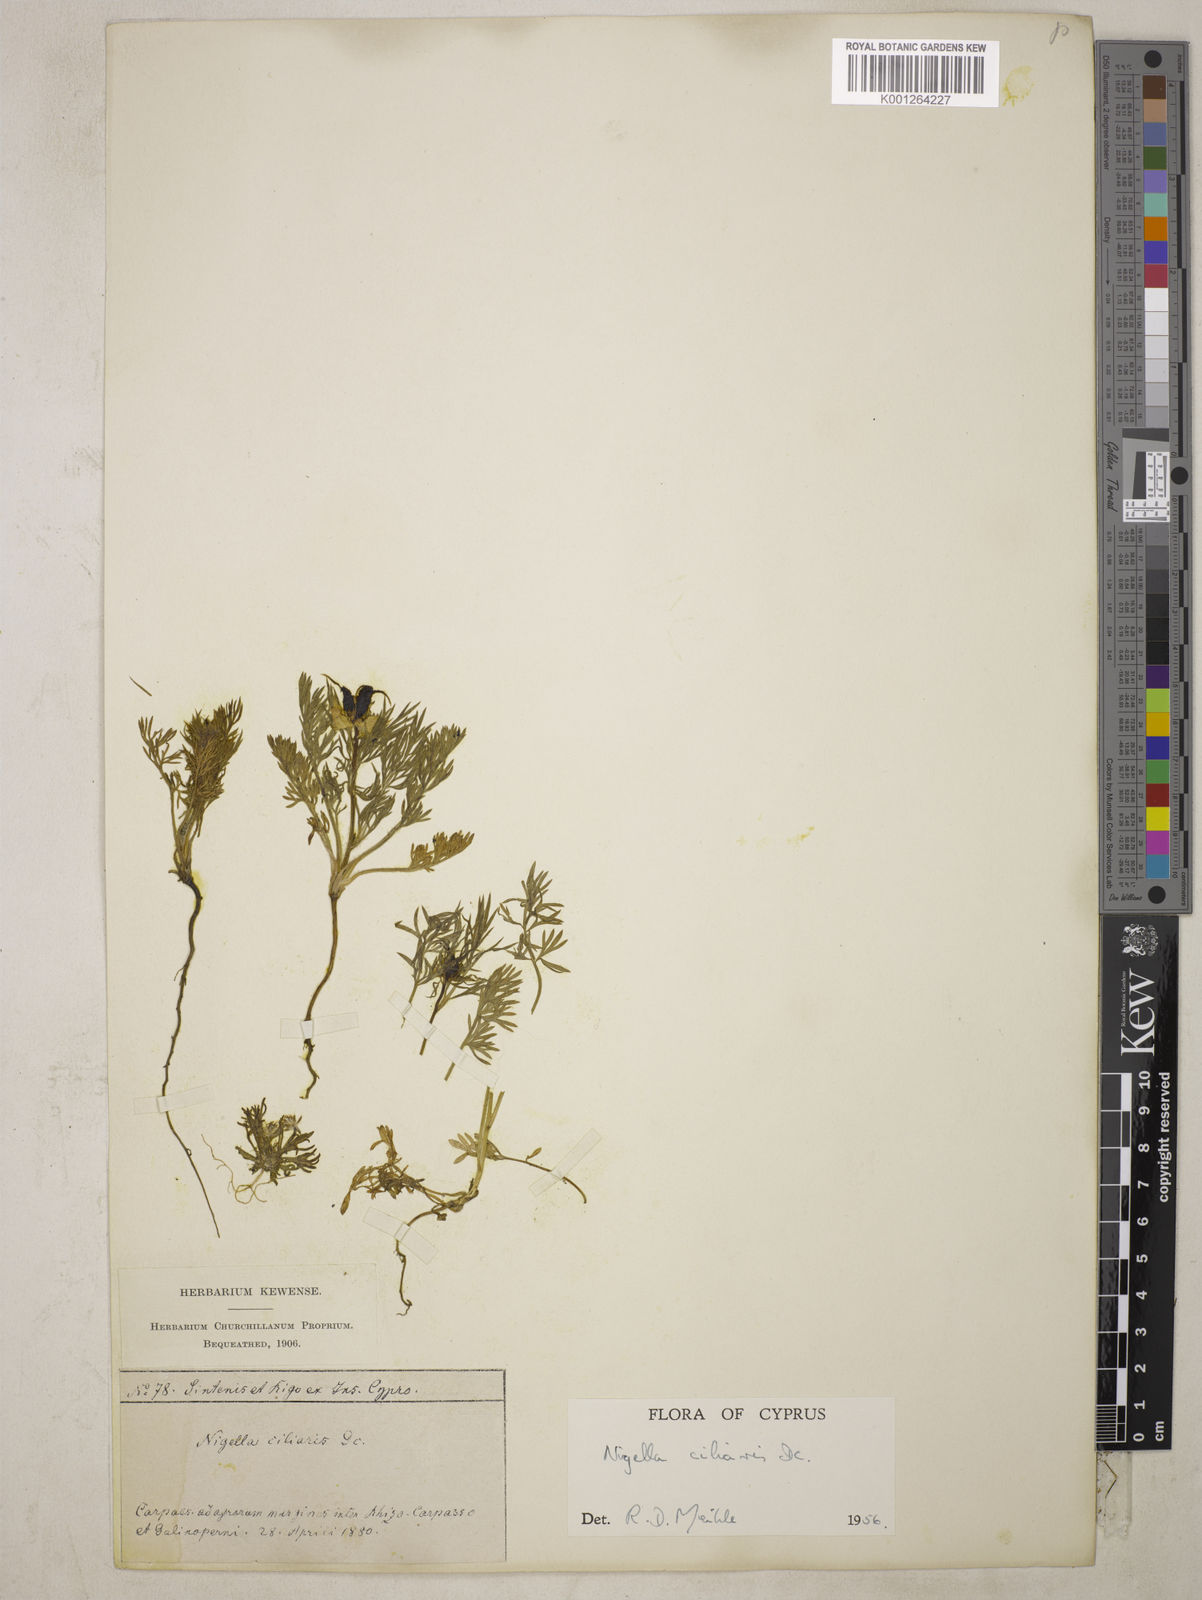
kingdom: Plantae
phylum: Tracheophyta
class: Magnoliopsida
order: Ranunculales
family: Ranunculaceae
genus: Nigella
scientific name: Nigella ciliaris
